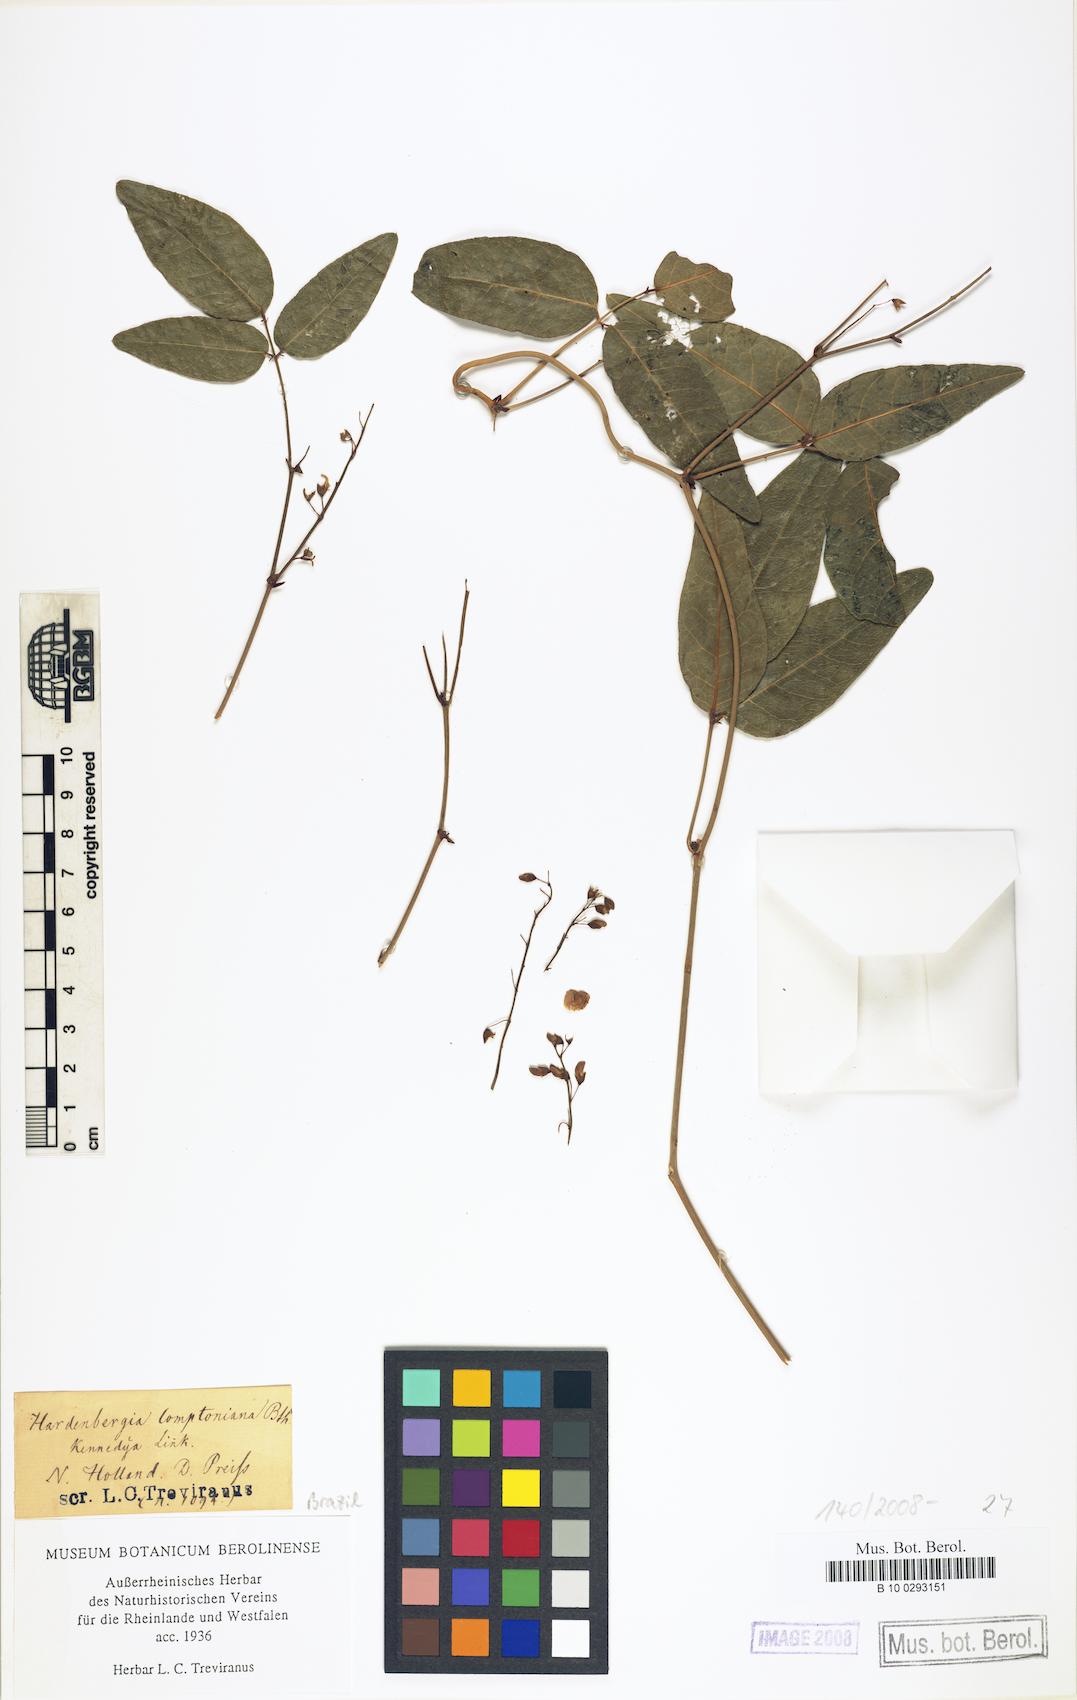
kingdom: Plantae
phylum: Tracheophyta
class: Magnoliopsida
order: Fabales
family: Fabaceae
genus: Hardenbergia
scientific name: Hardenbergia comptoniana
